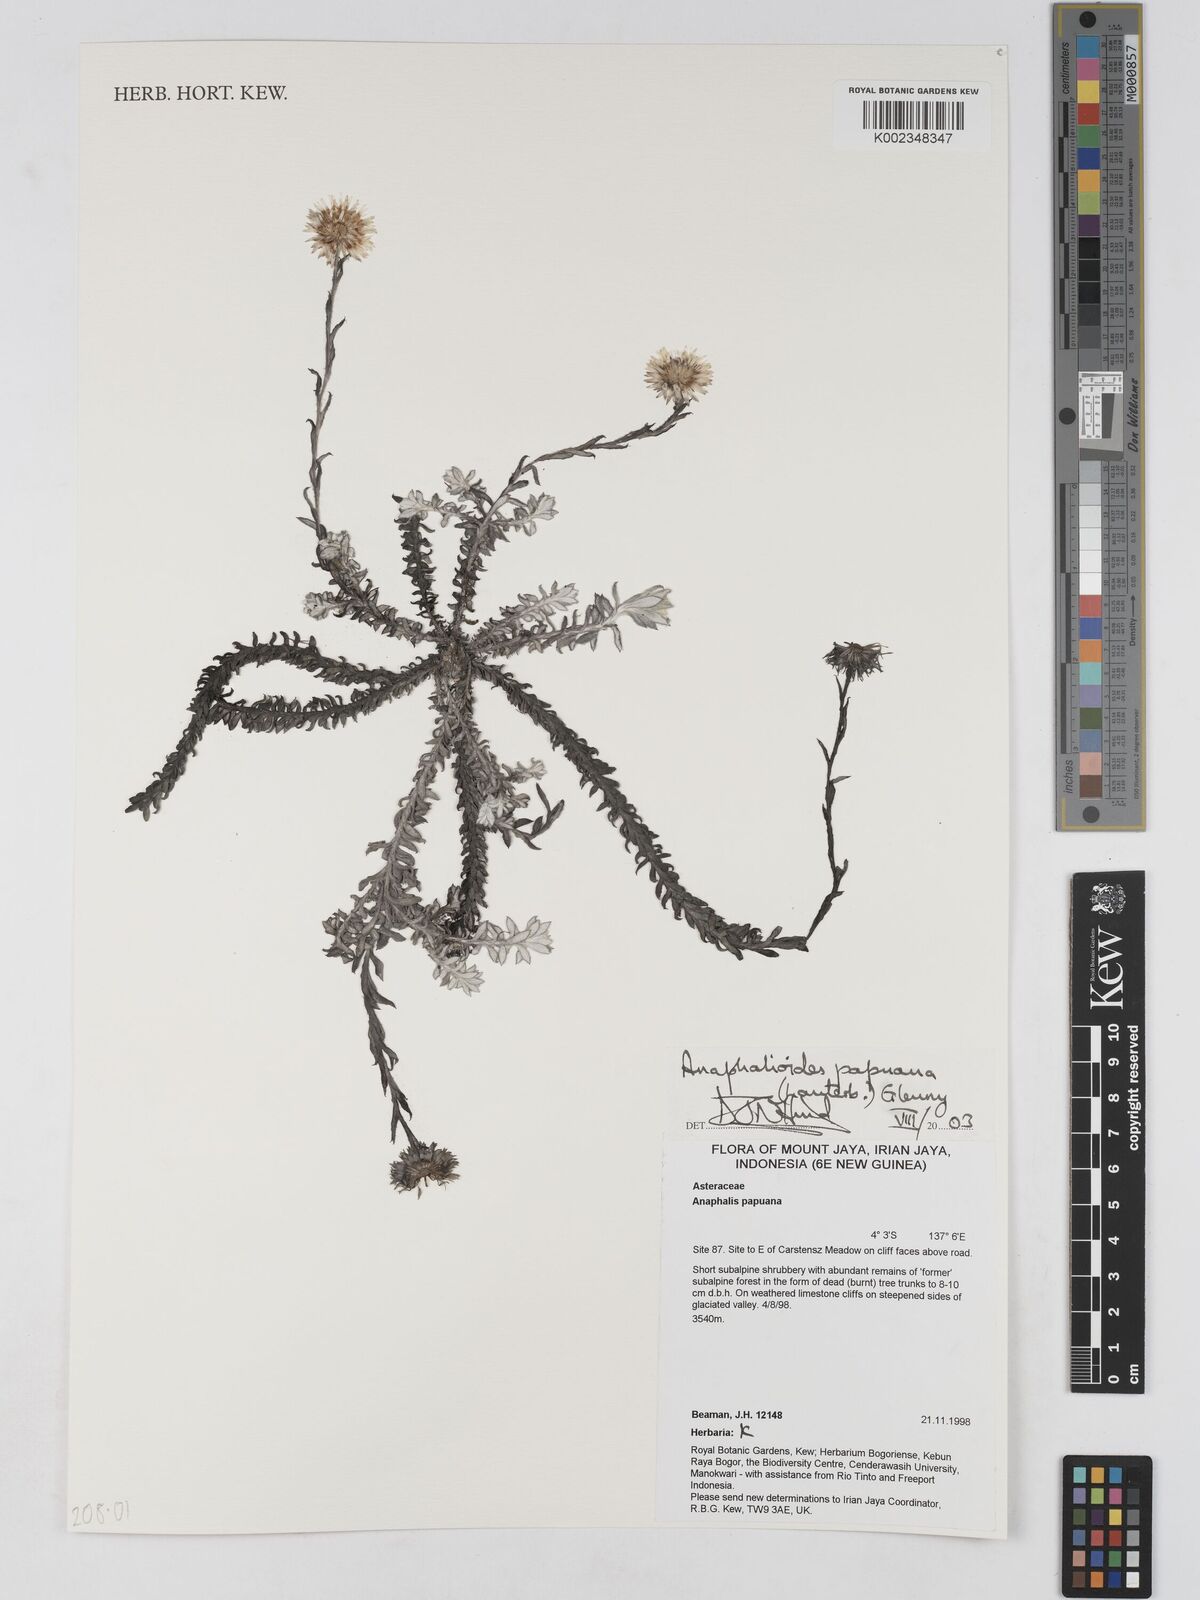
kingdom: Plantae
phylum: Tracheophyta
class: Magnoliopsida
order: Asterales
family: Asteraceae
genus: Anaphalioides
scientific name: Anaphalioides papuana
